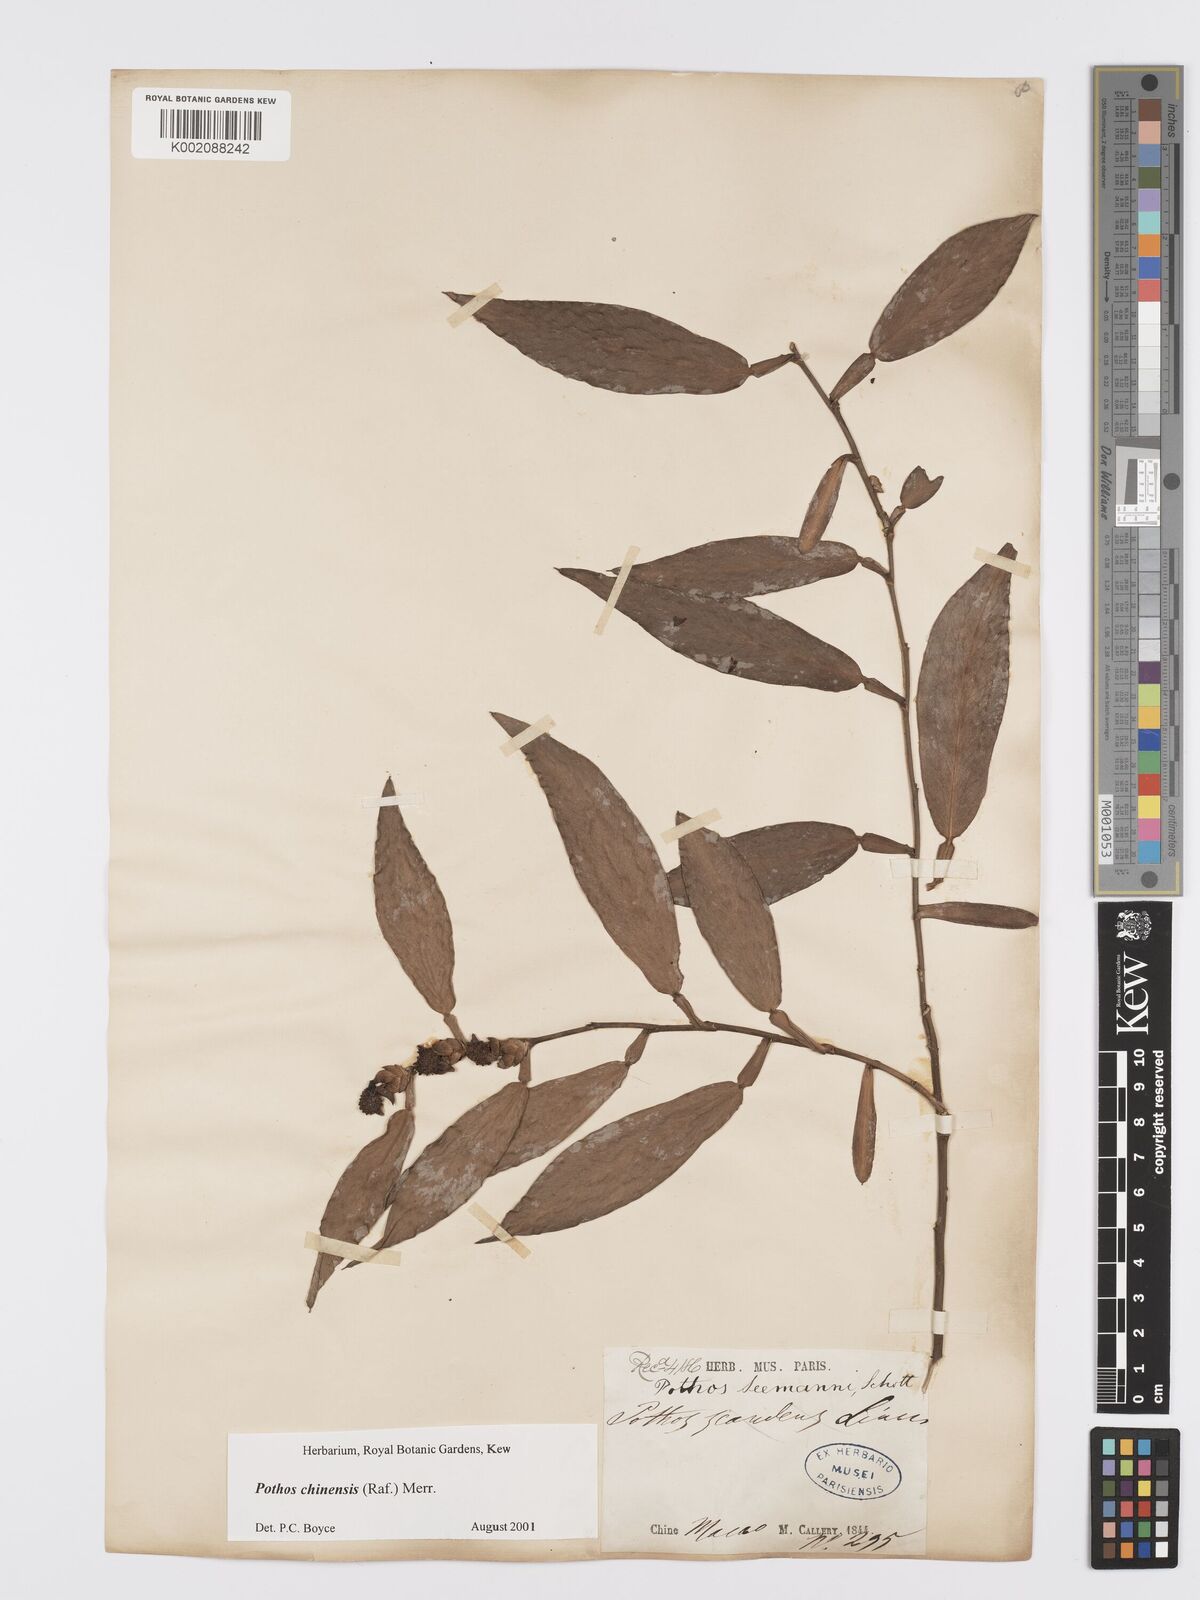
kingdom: Plantae
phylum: Tracheophyta
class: Liliopsida
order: Alismatales
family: Araceae
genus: Pothos
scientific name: Pothos chinensis
